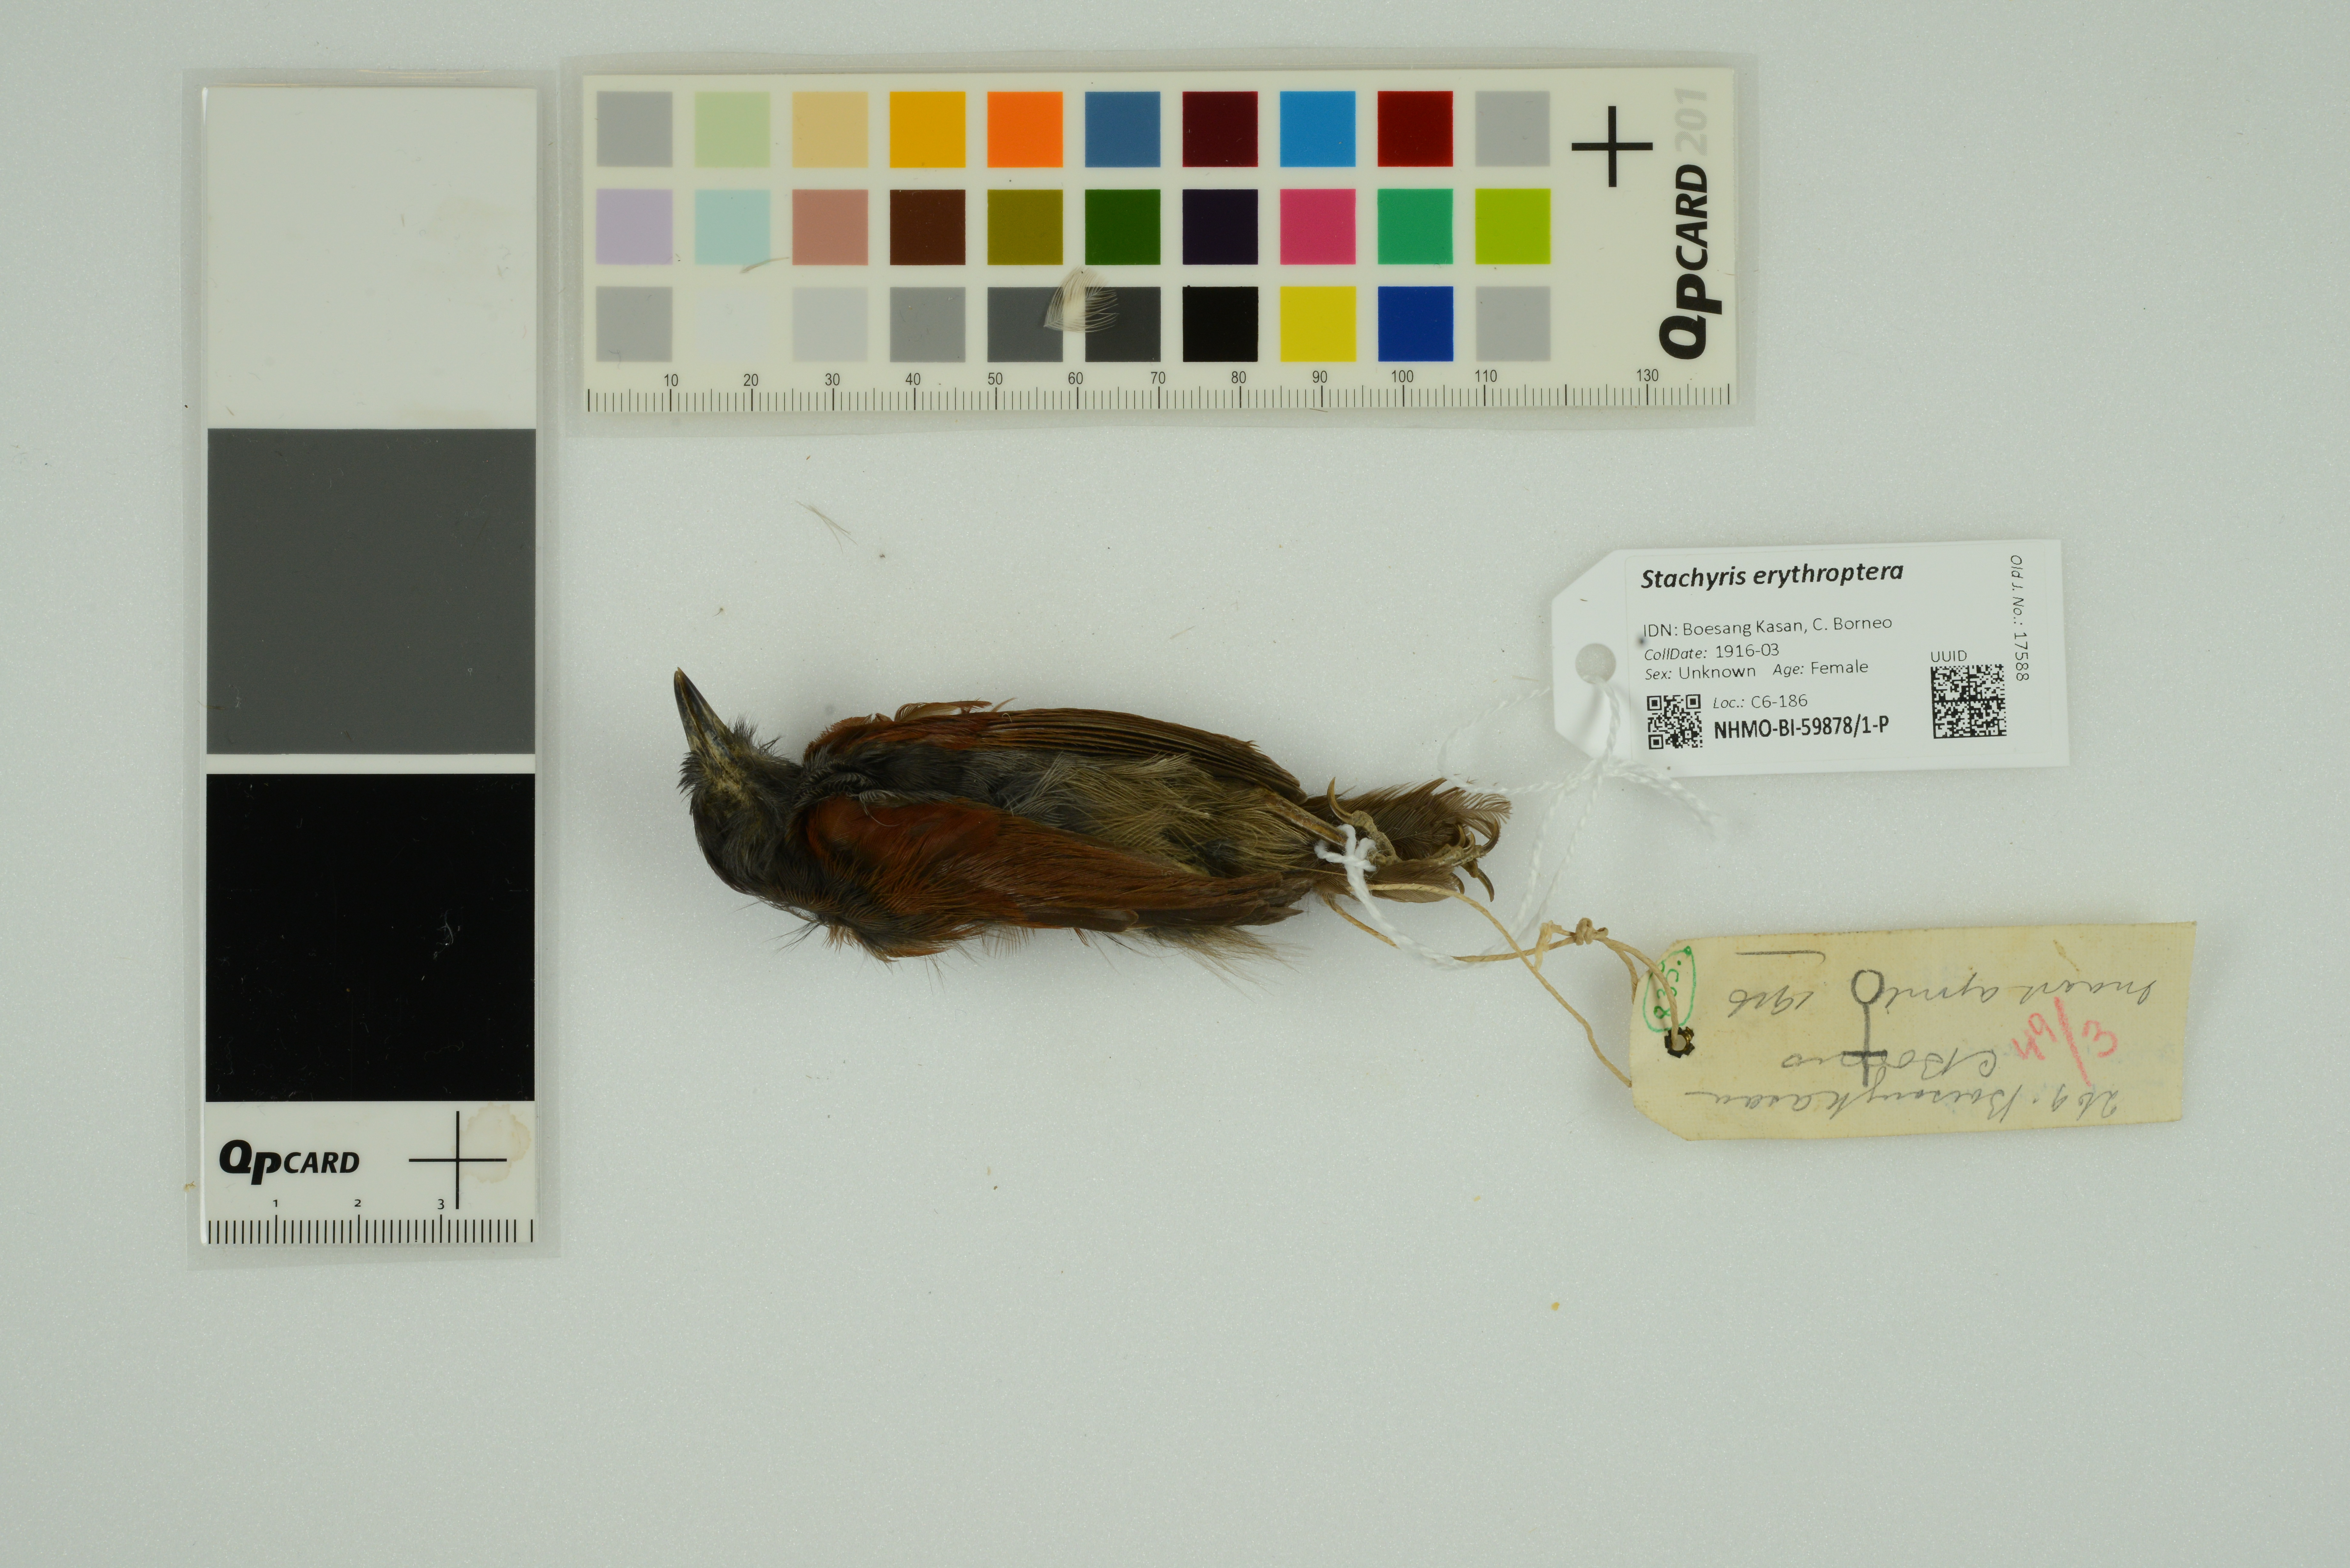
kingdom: Animalia
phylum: Chordata
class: Aves
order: Passeriformes
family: Timaliidae
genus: Stachyris
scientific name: Stachyris erythroptera
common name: Chestnut-winged babbler
